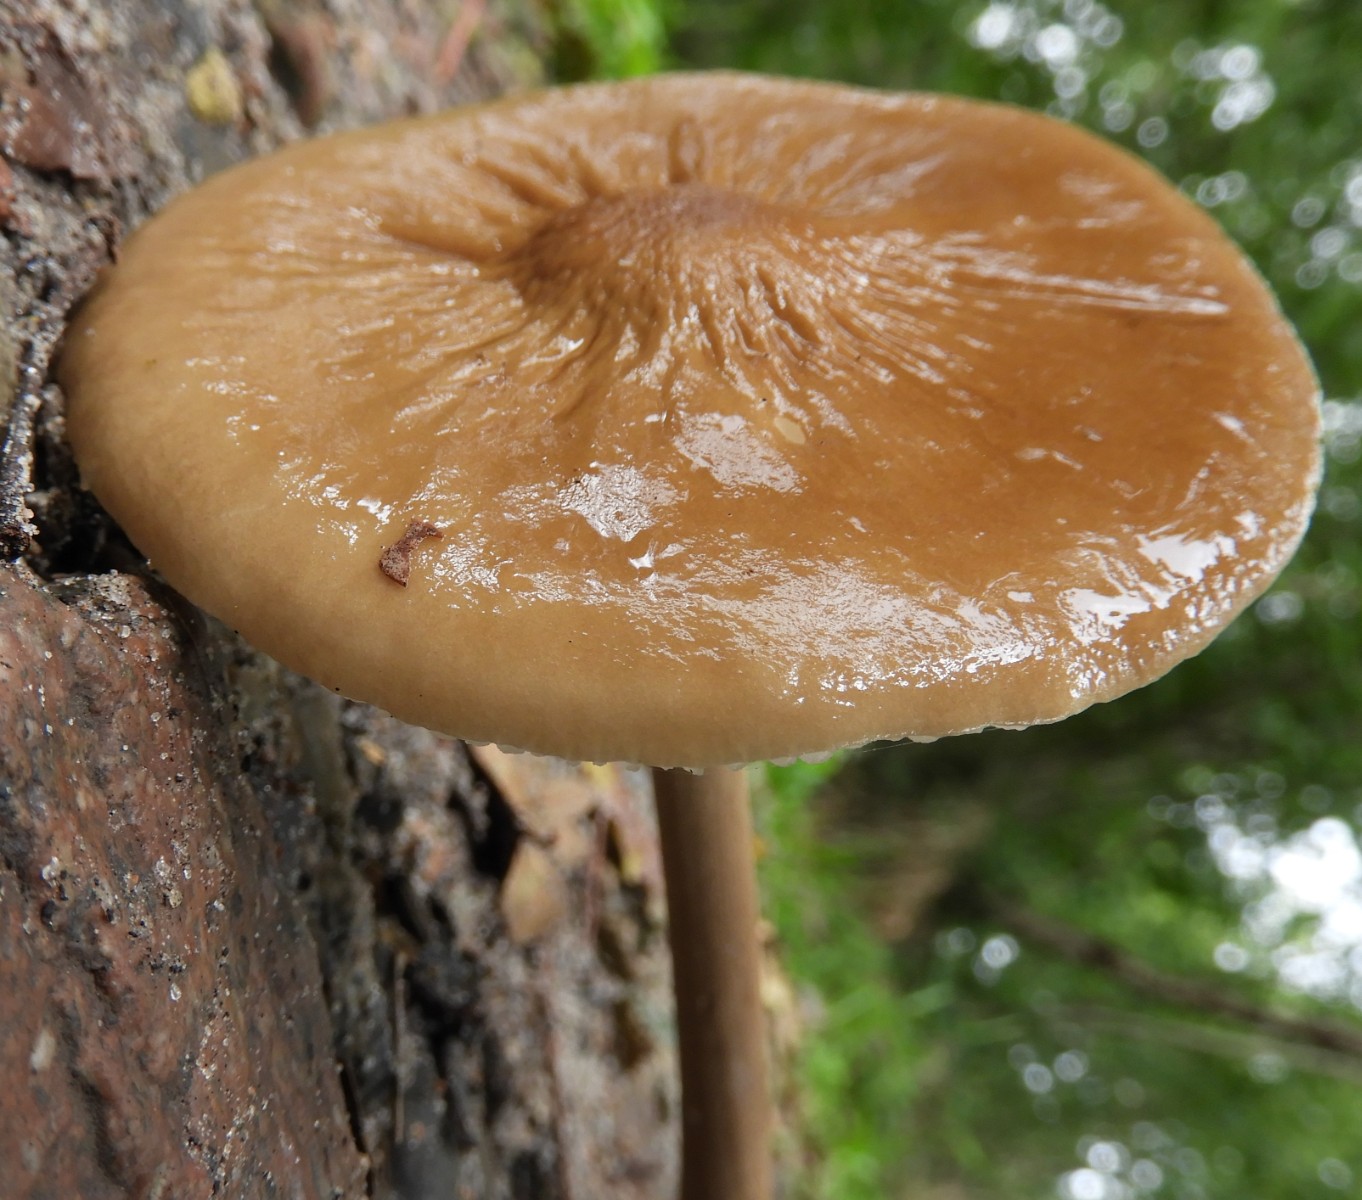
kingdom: Fungi
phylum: Basidiomycota
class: Agaricomycetes
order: Agaricales
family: Physalacriaceae
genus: Hymenopellis
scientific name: Hymenopellis radicata
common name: almindelig pælerodshat
